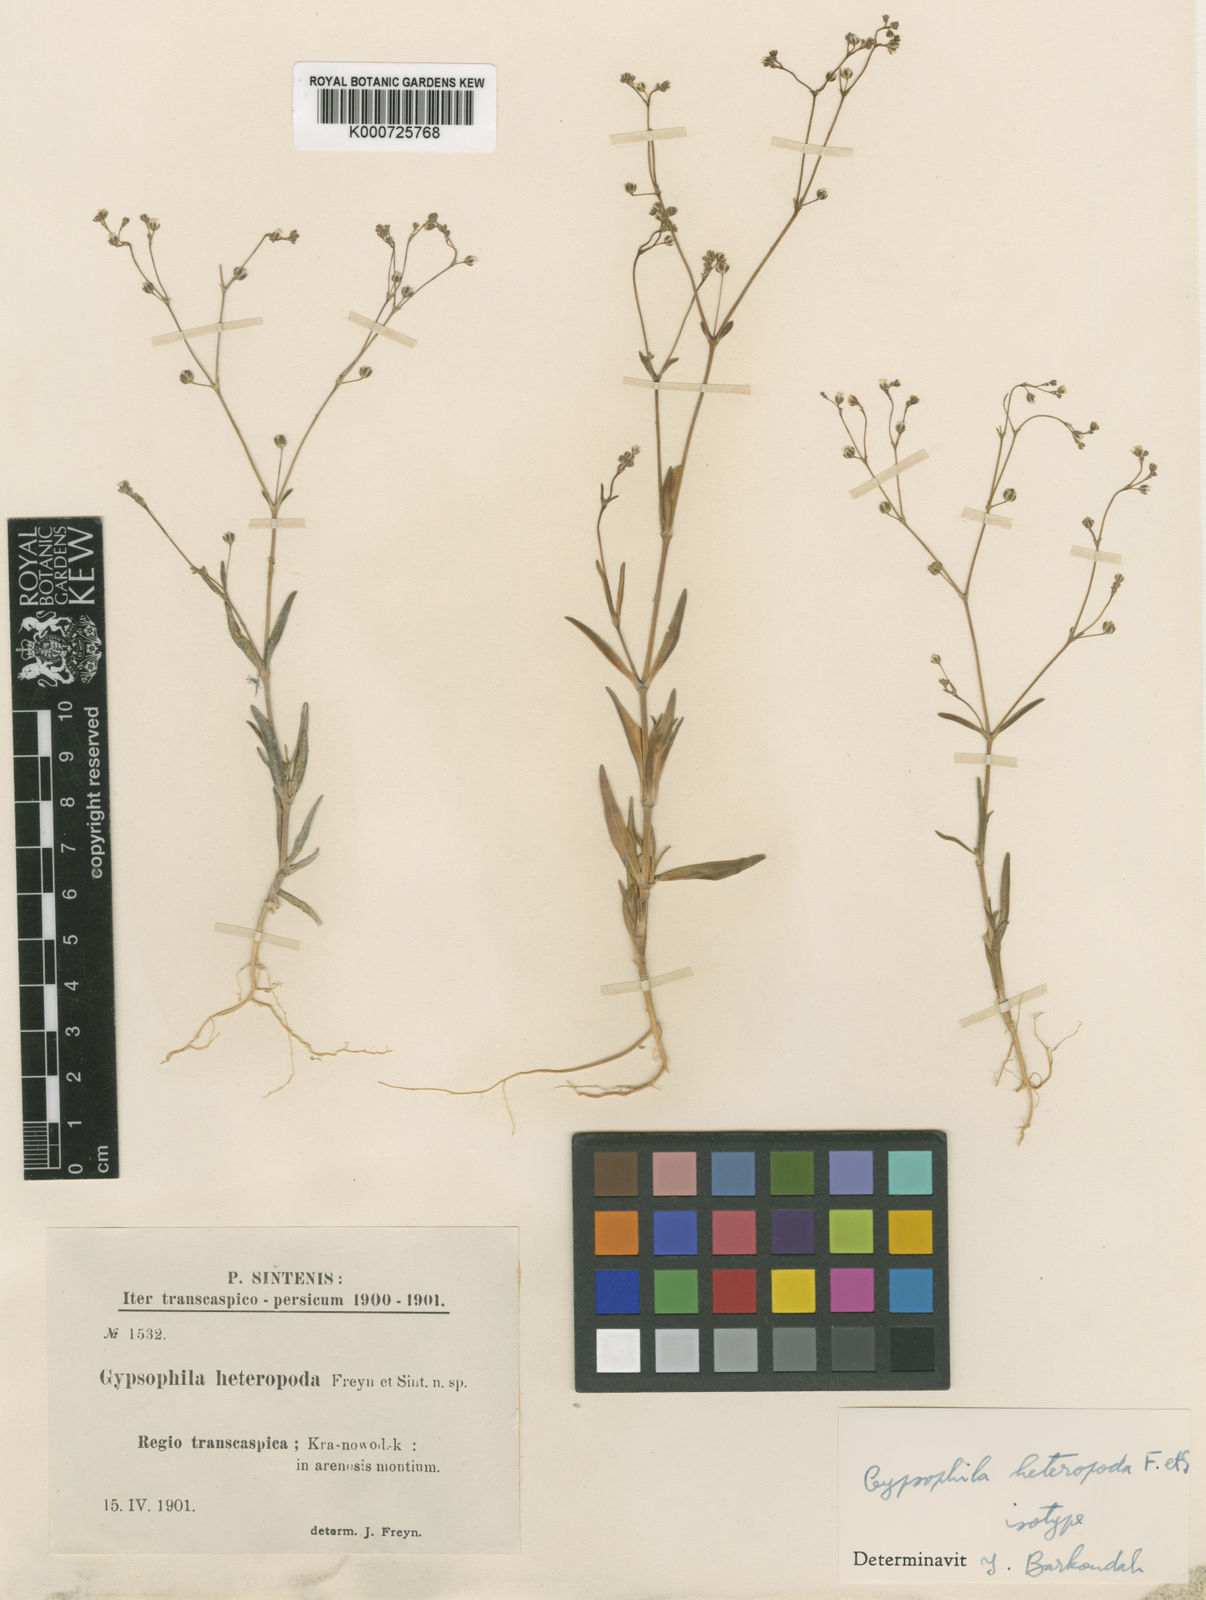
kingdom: Plantae
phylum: Tracheophyta
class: Magnoliopsida
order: Caryophyllales
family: Caryophyllaceae
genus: Gypsophila
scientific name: Gypsophila heteropoda
